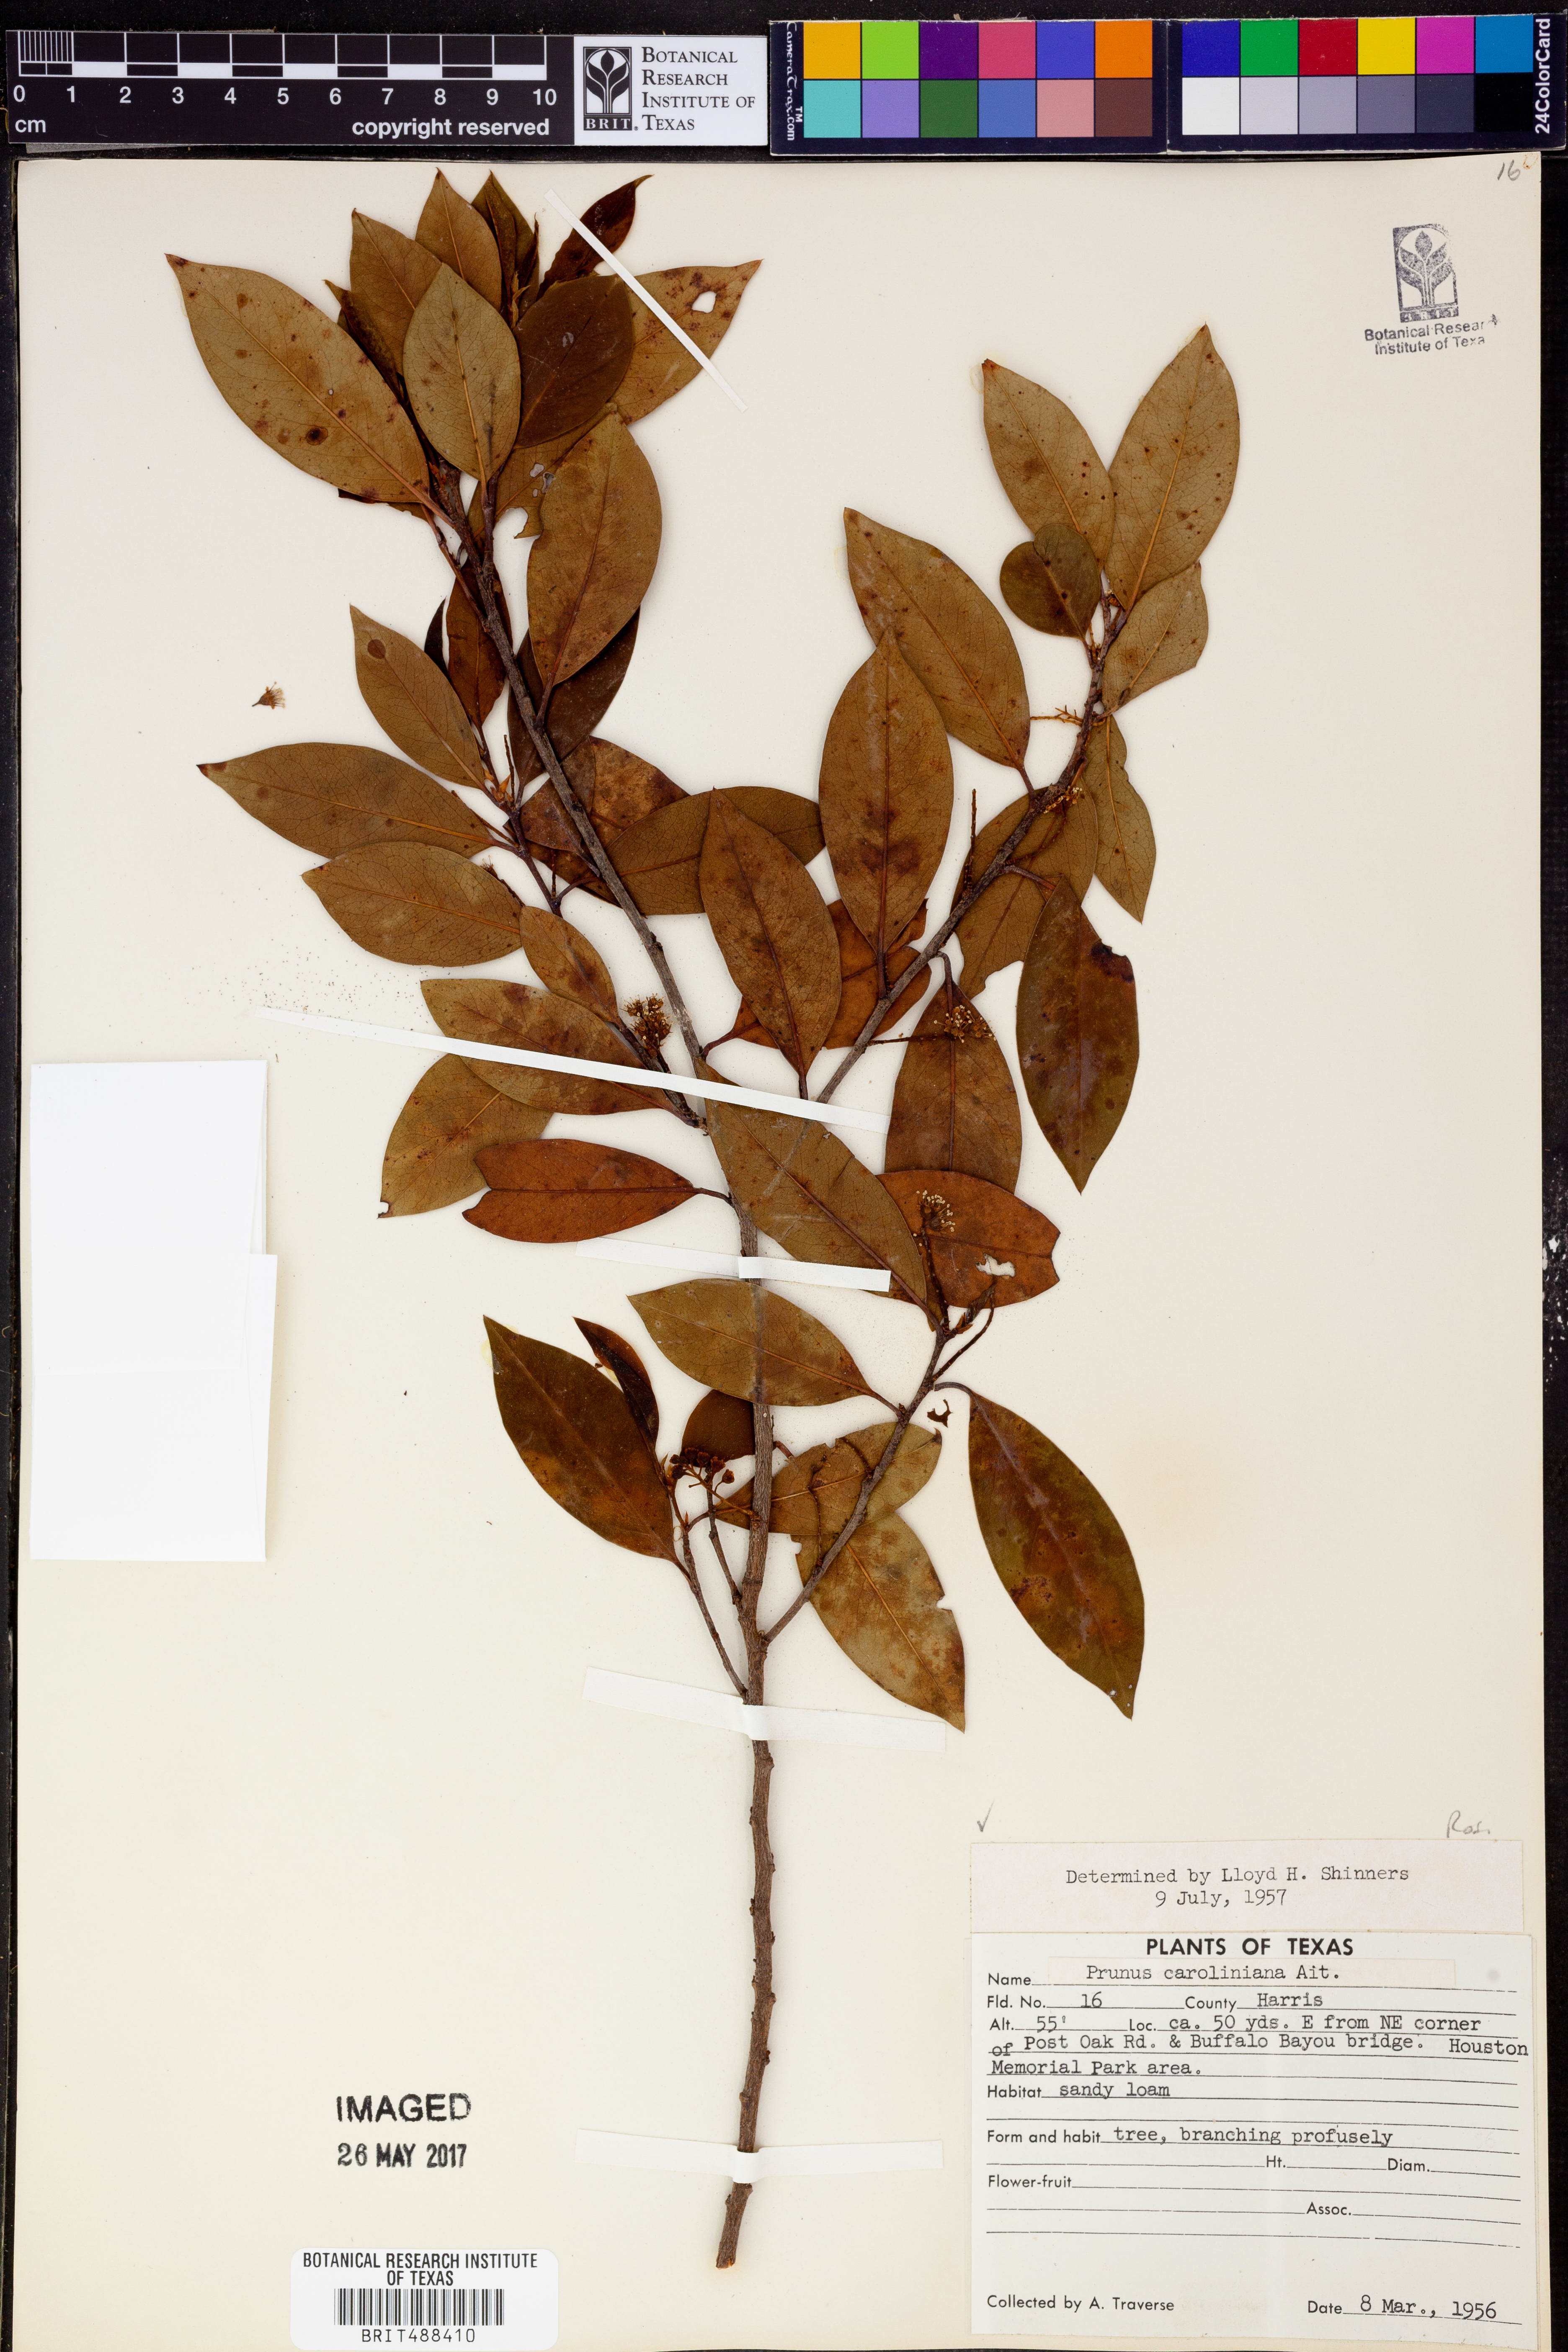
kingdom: Plantae
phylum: Tracheophyta
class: Magnoliopsida
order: Rosales
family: Rosaceae
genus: Prunus
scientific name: Prunus caroliniana
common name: Carolina laurel cherry
